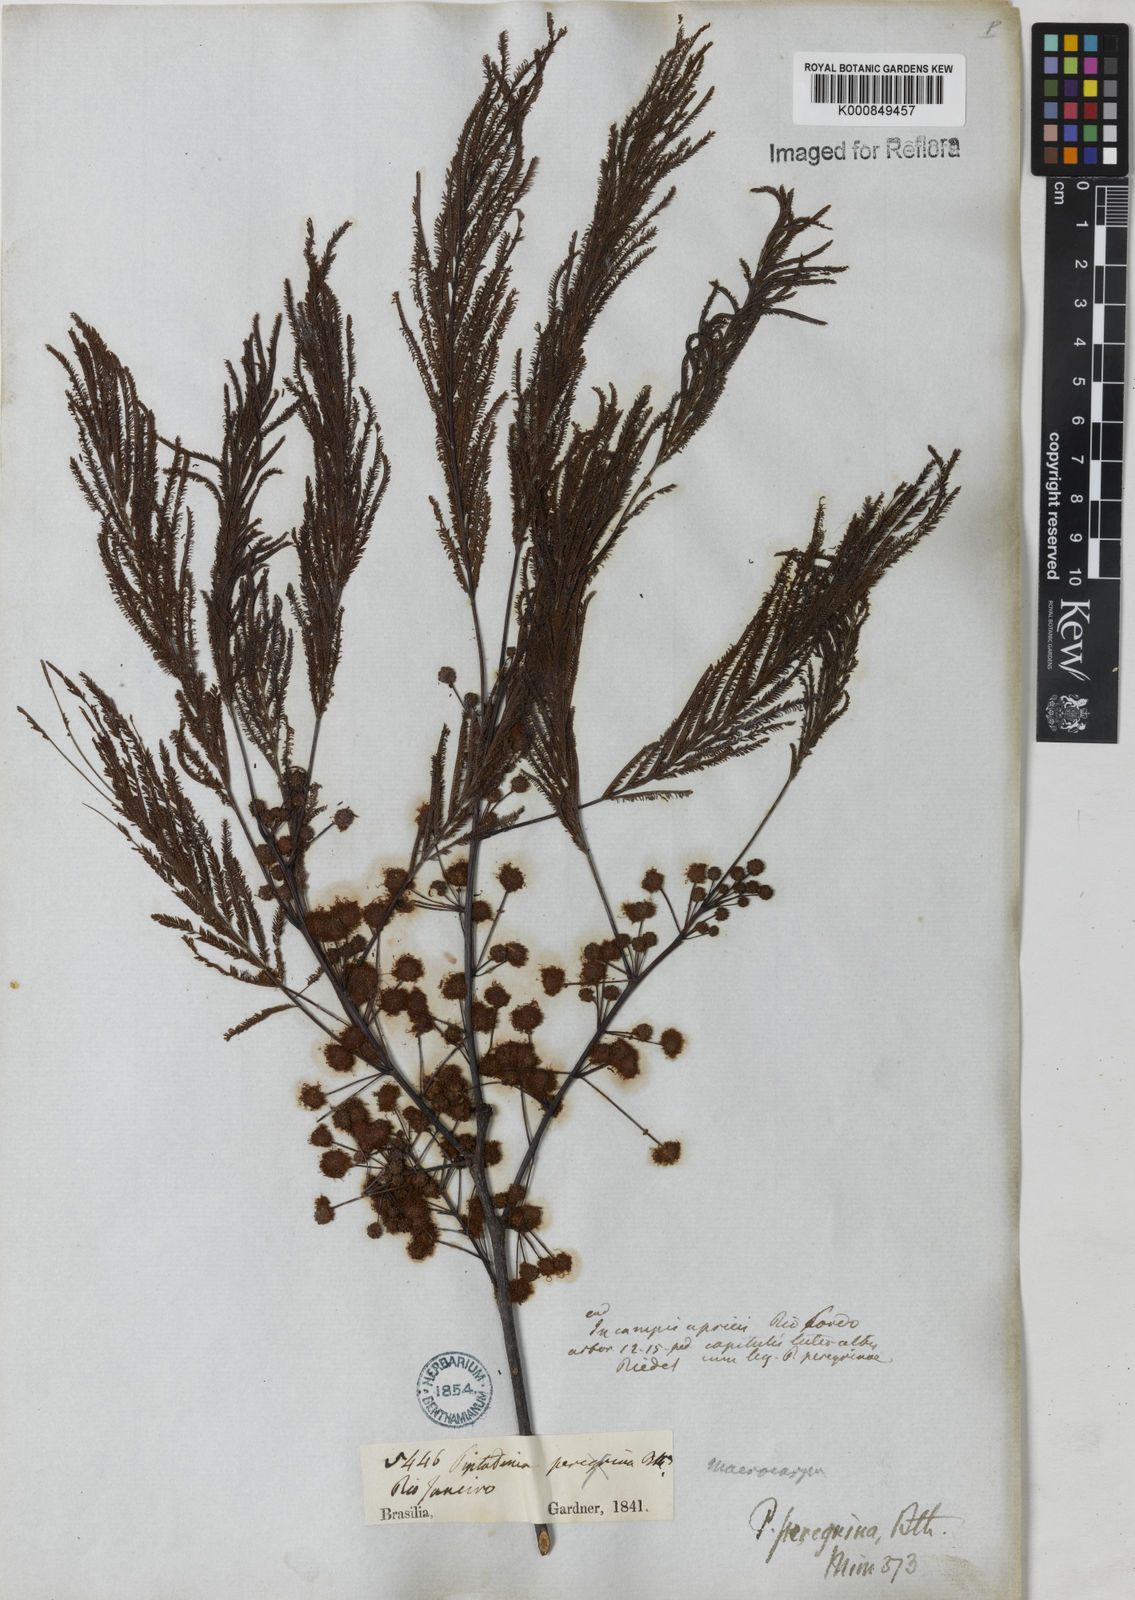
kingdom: Plantae
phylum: Tracheophyta
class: Magnoliopsida
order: Fabales
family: Fabaceae
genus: Anadenanthera
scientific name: Anadenanthera peregrina
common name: Cohoba
